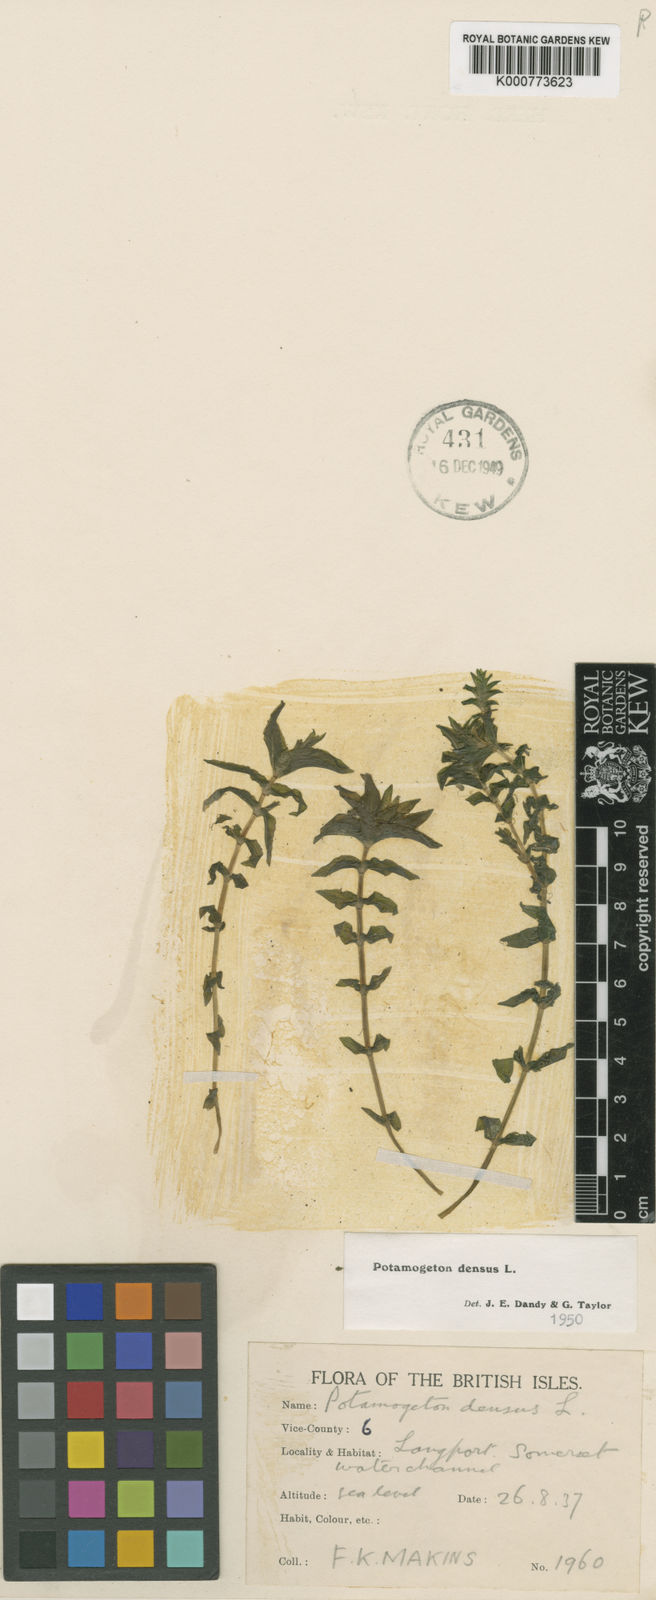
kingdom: Plantae
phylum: Tracheophyta
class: Liliopsida
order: Alismatales
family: Potamogetonaceae
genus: Groenlandia
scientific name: Groenlandia densa
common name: Opposite-leaved pondweed
